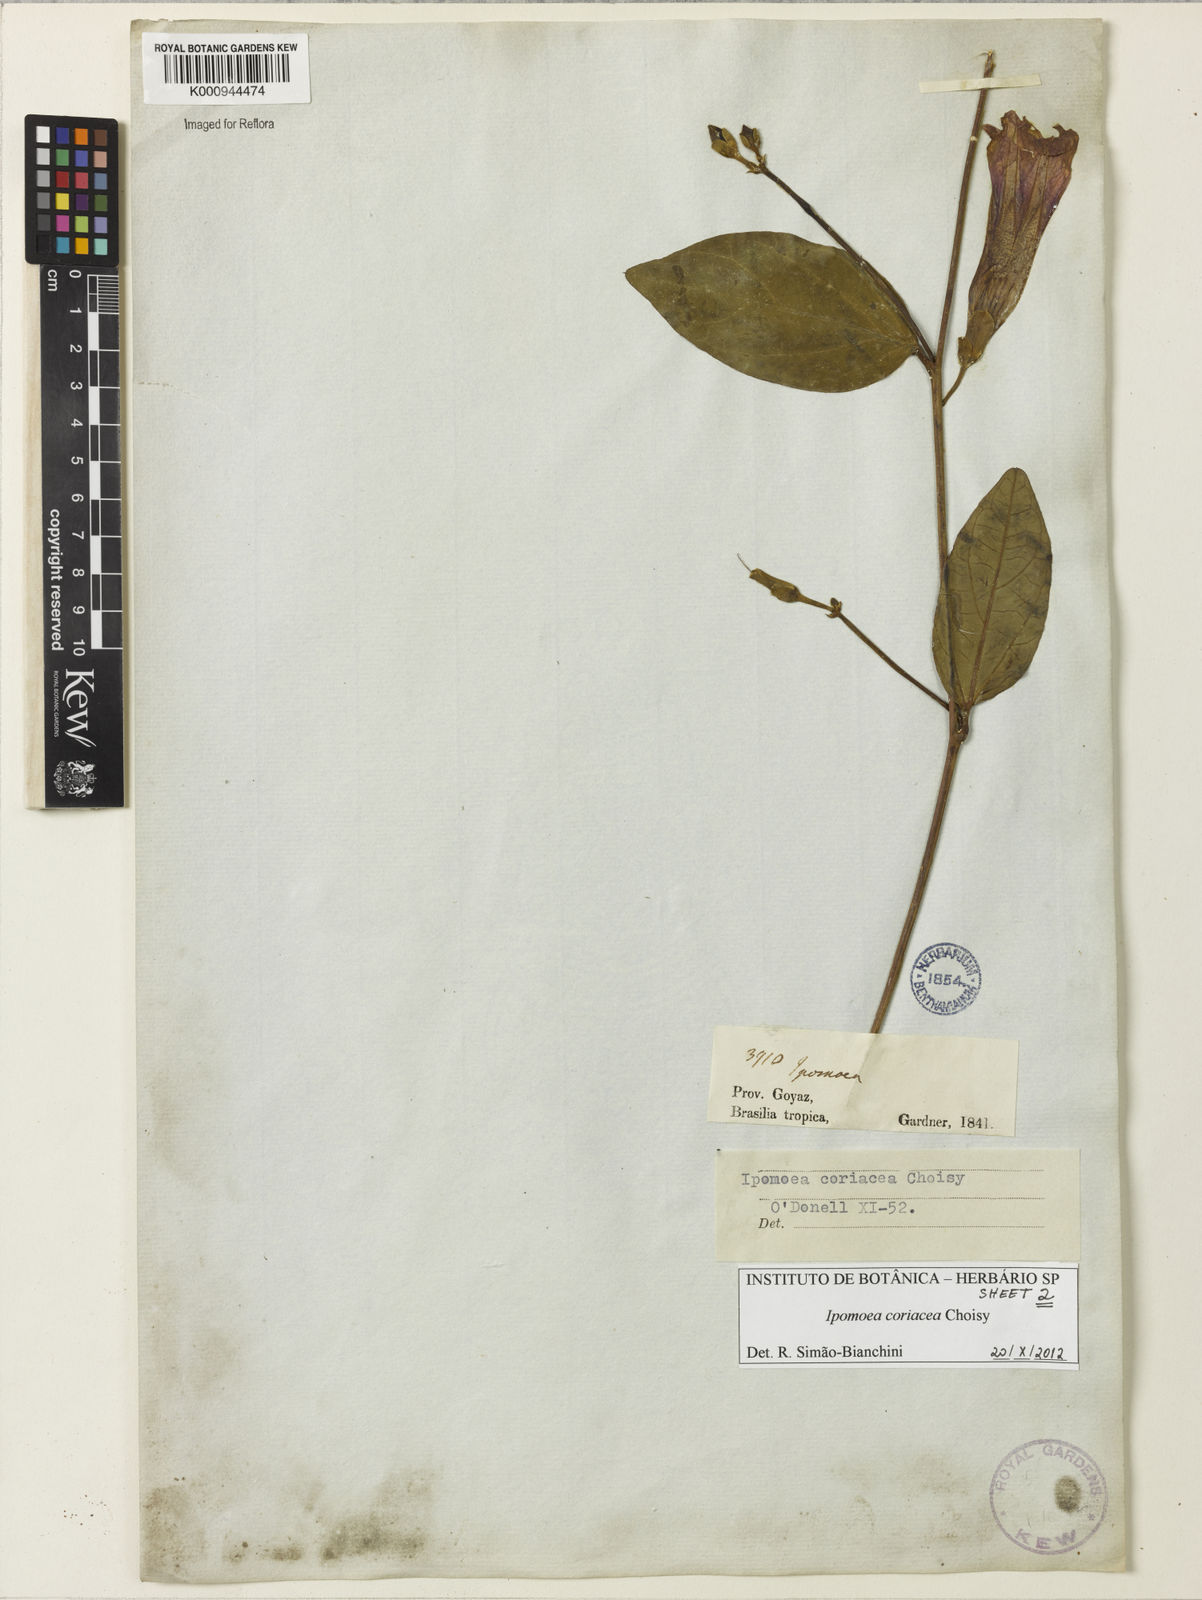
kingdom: Plantae
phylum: Tracheophyta
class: Magnoliopsida
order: Solanales
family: Convolvulaceae
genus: Ipomoea
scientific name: Ipomoea coriacea
